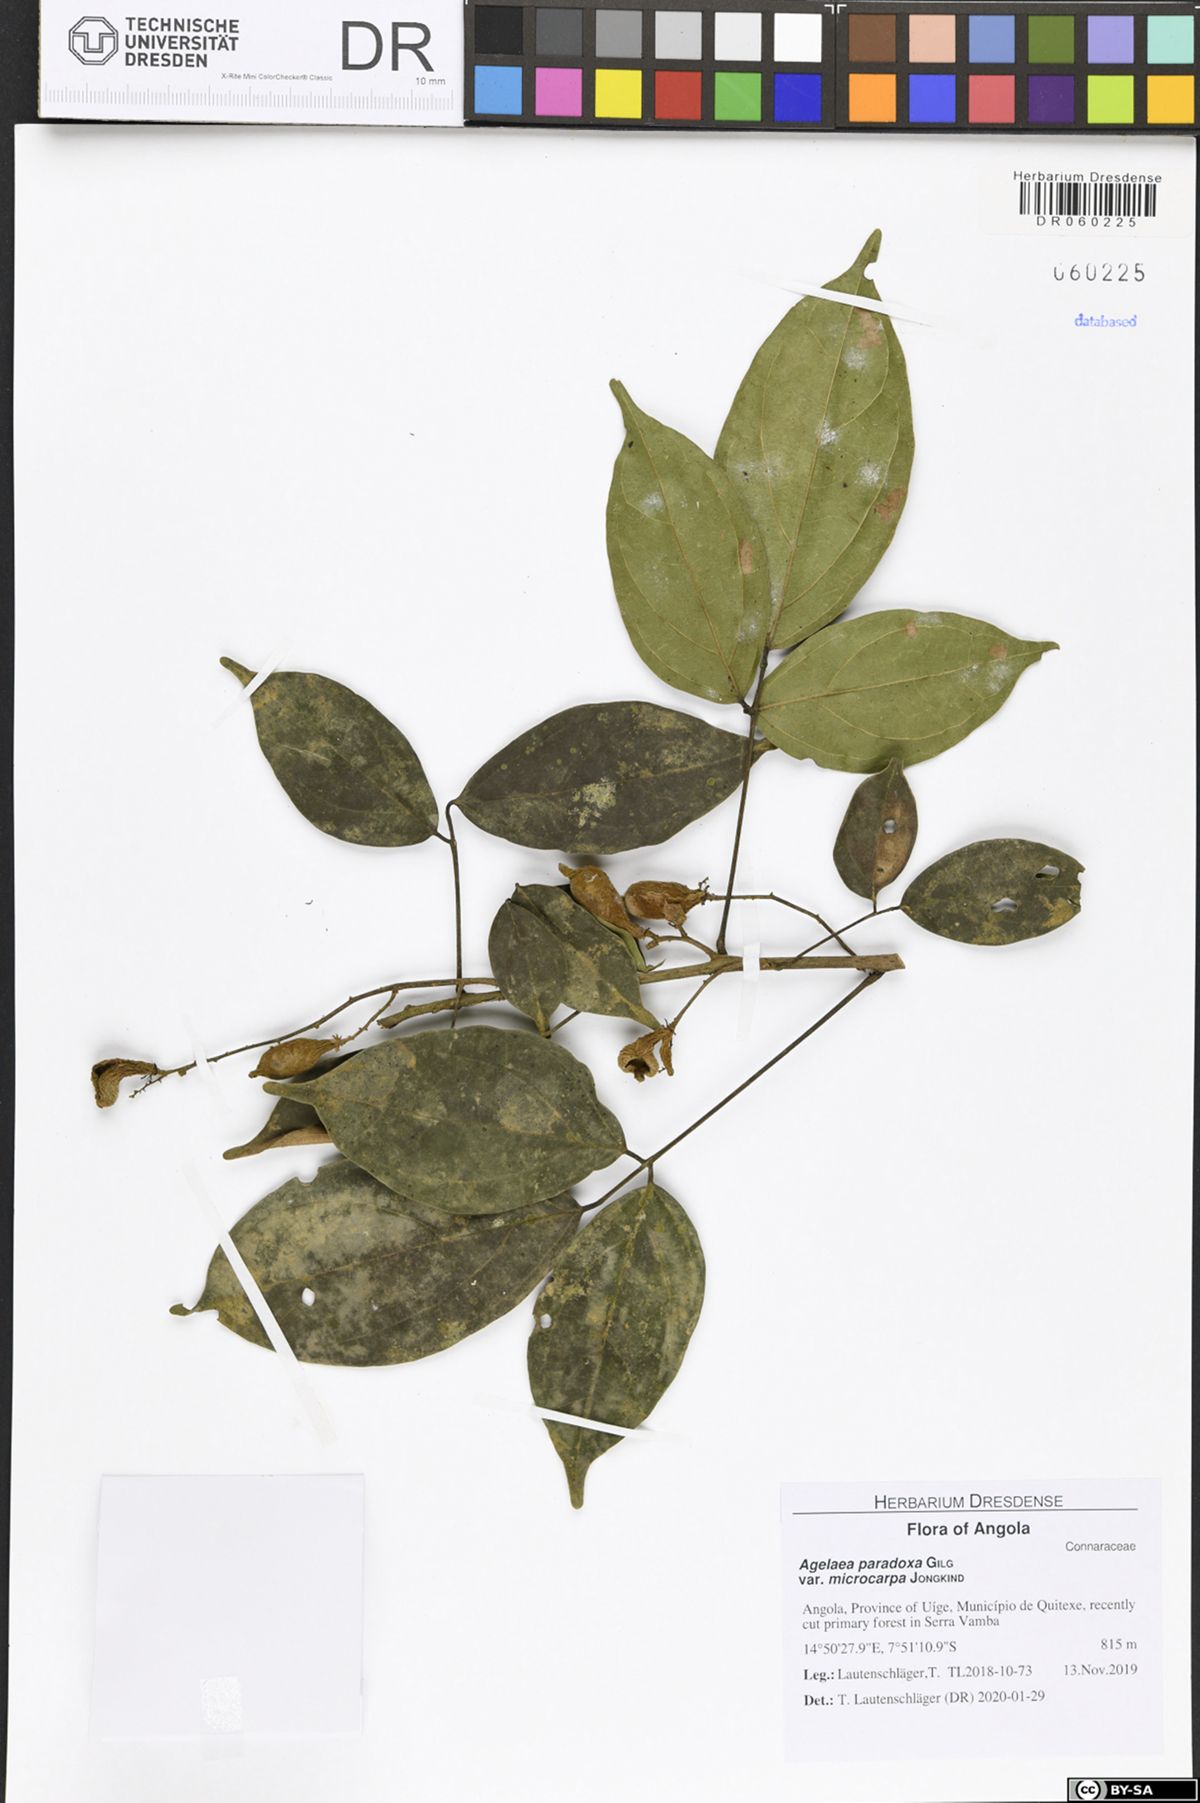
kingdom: Plantae
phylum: Tracheophyta
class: Magnoliopsida
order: Oxalidales
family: Connaraceae
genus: Castanola
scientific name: Castanola paradoxa
